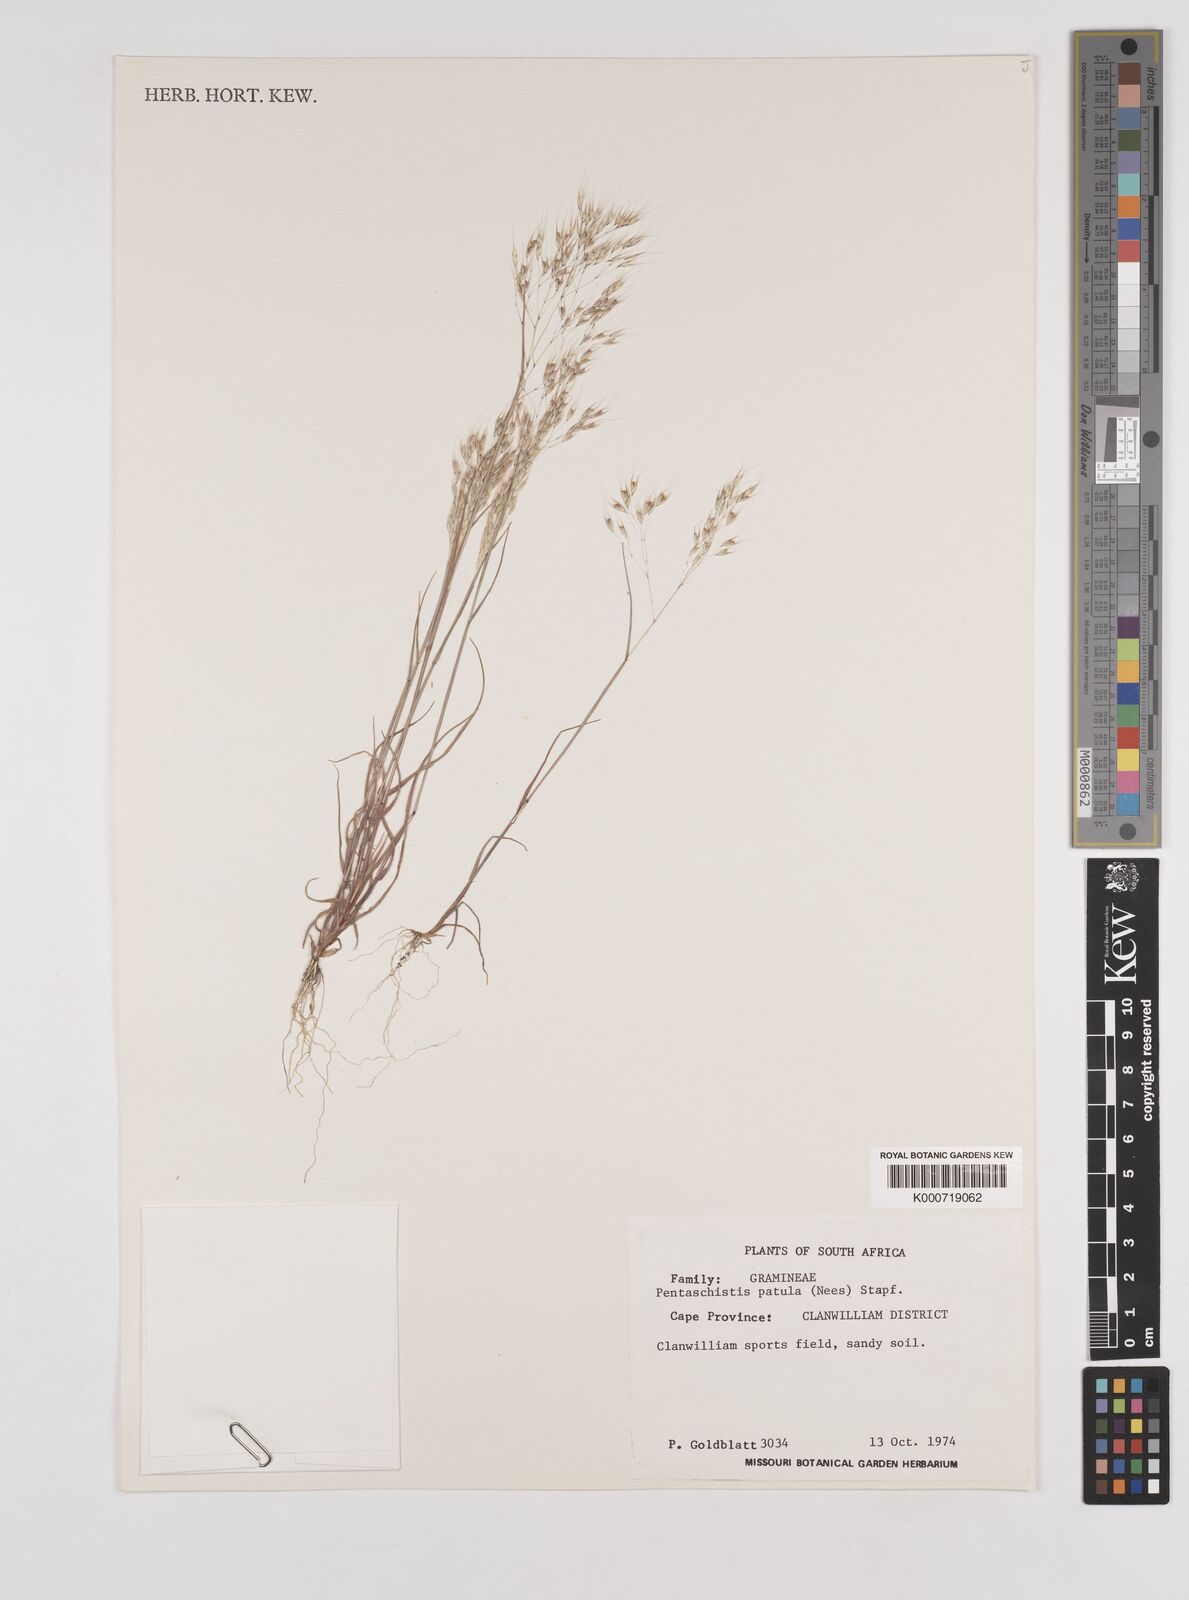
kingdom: Plantae
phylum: Tracheophyta
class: Liliopsida
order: Poales
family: Poaceae
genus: Pentameris
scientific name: Pentameris patula
